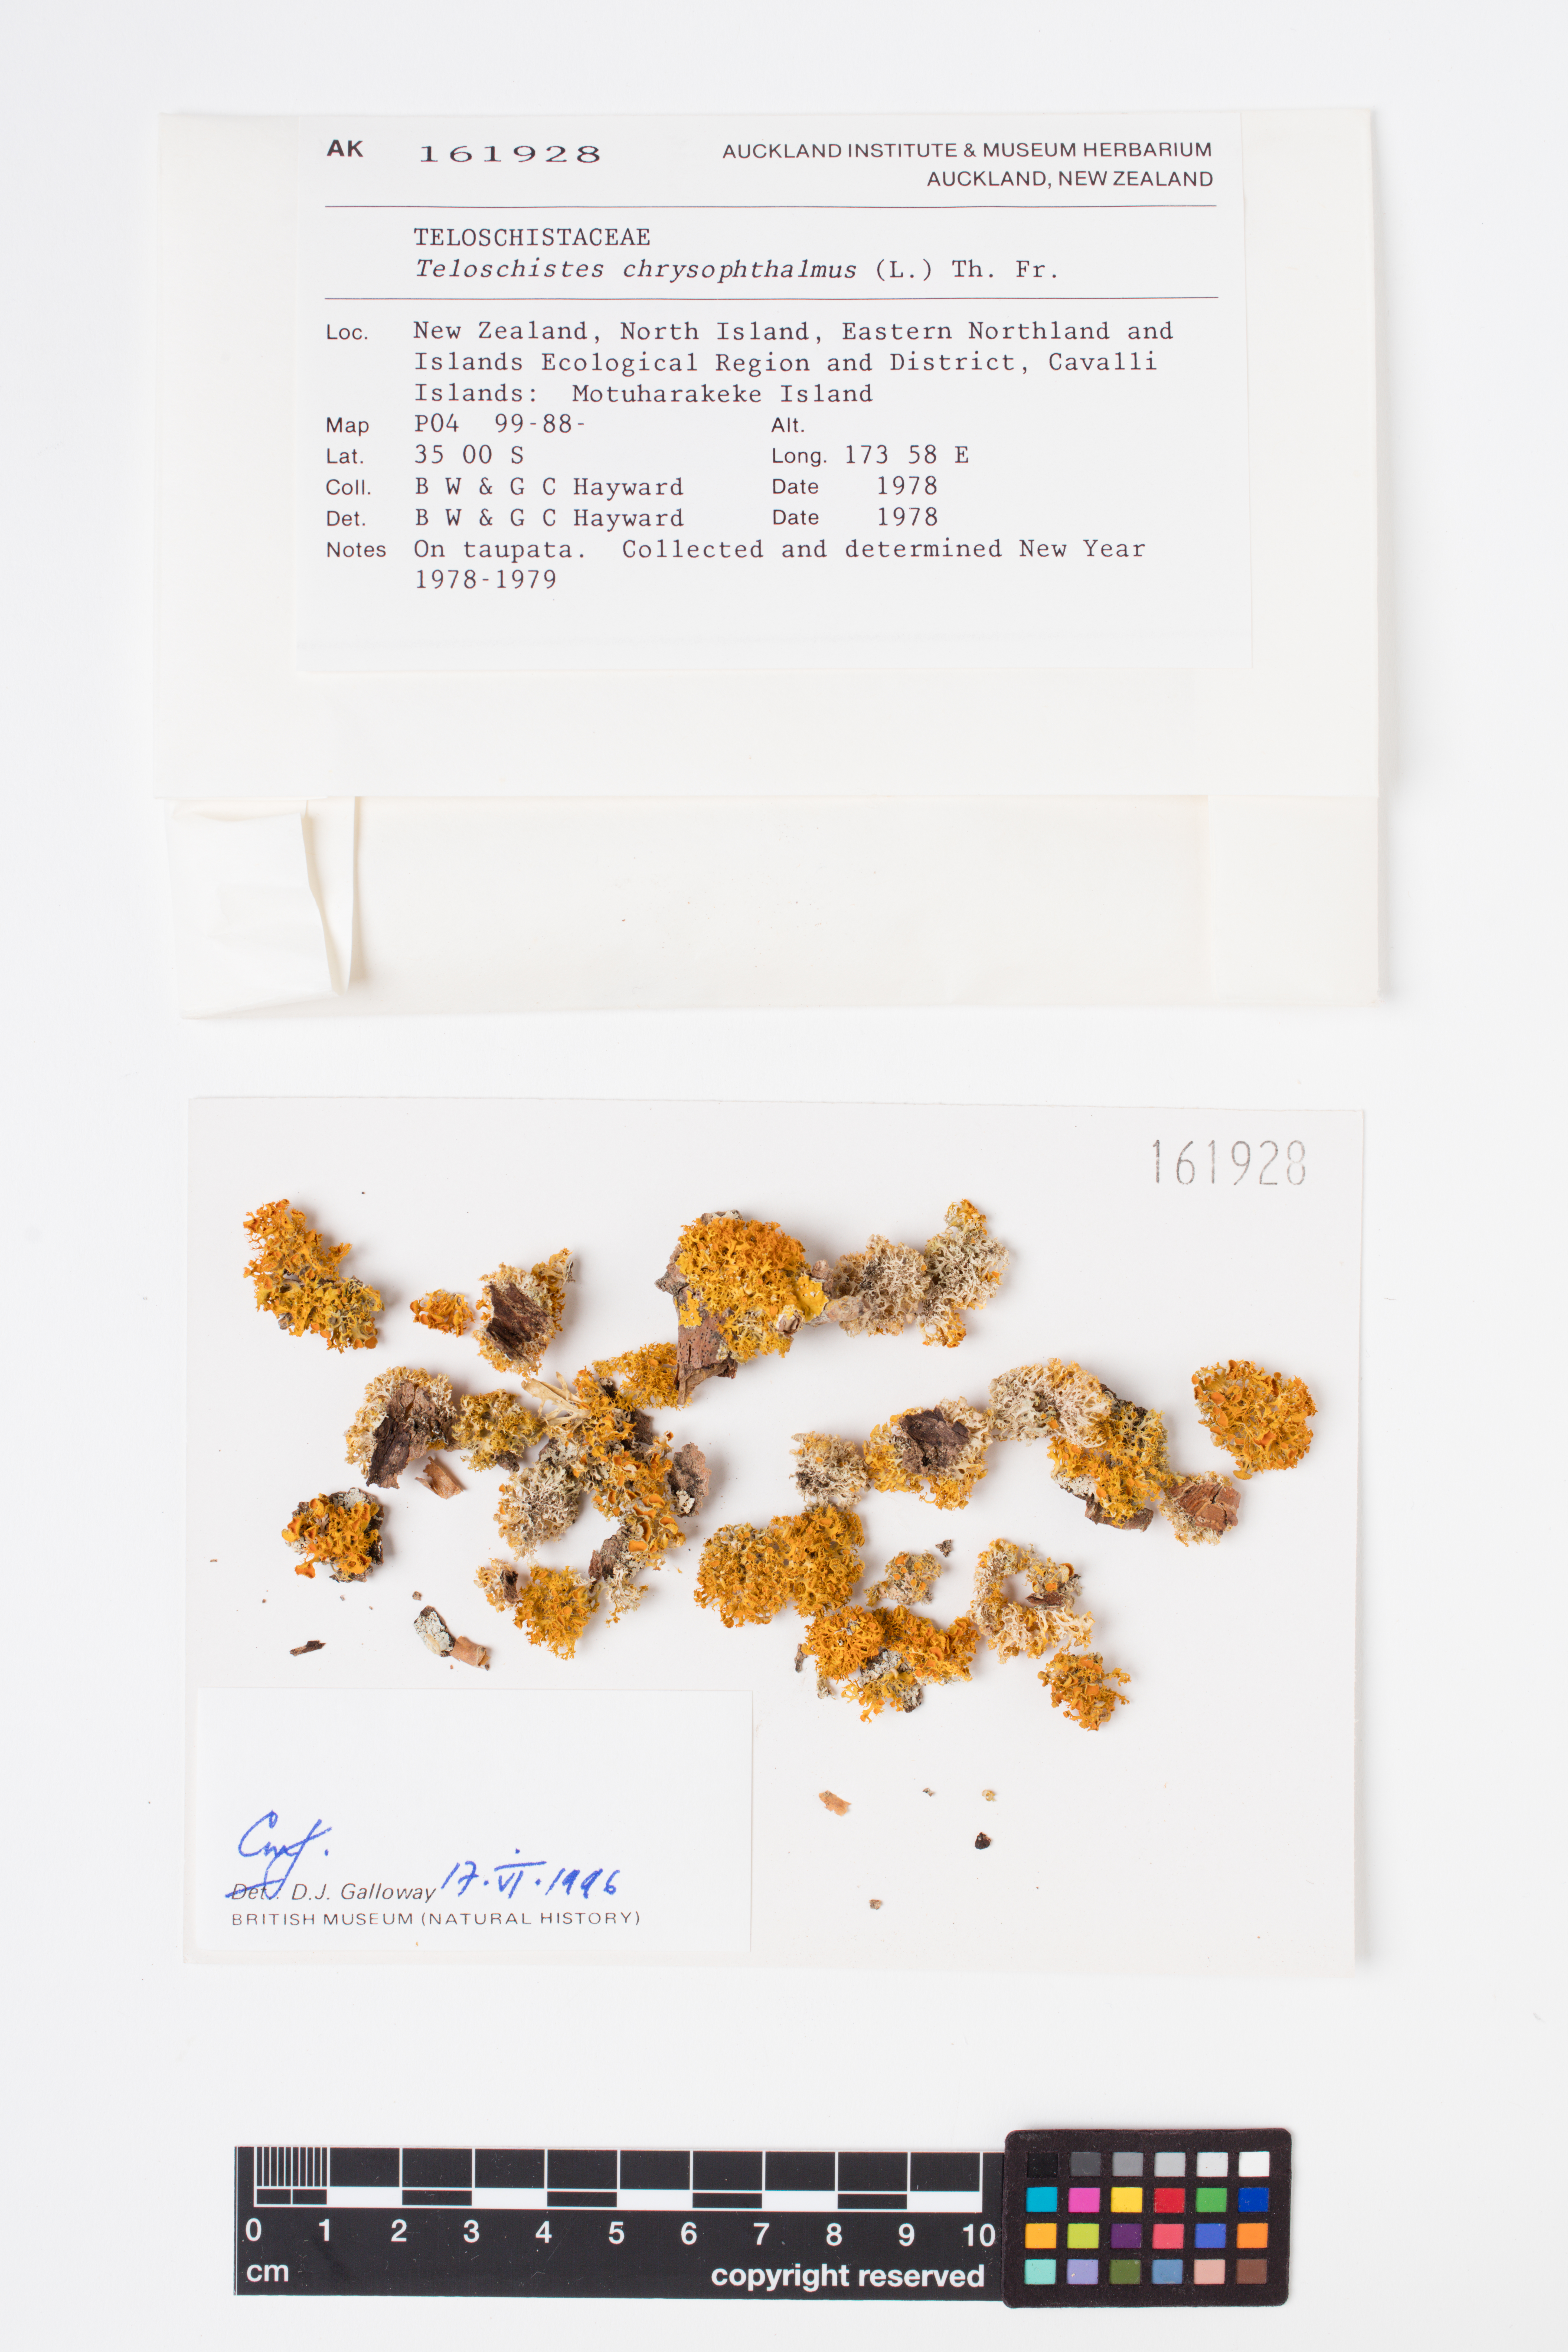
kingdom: Fungi
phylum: Ascomycota
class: Lecanoromycetes
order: Teloschistales
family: Teloschistaceae
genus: Niorma
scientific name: Niorma chrysophthalma
